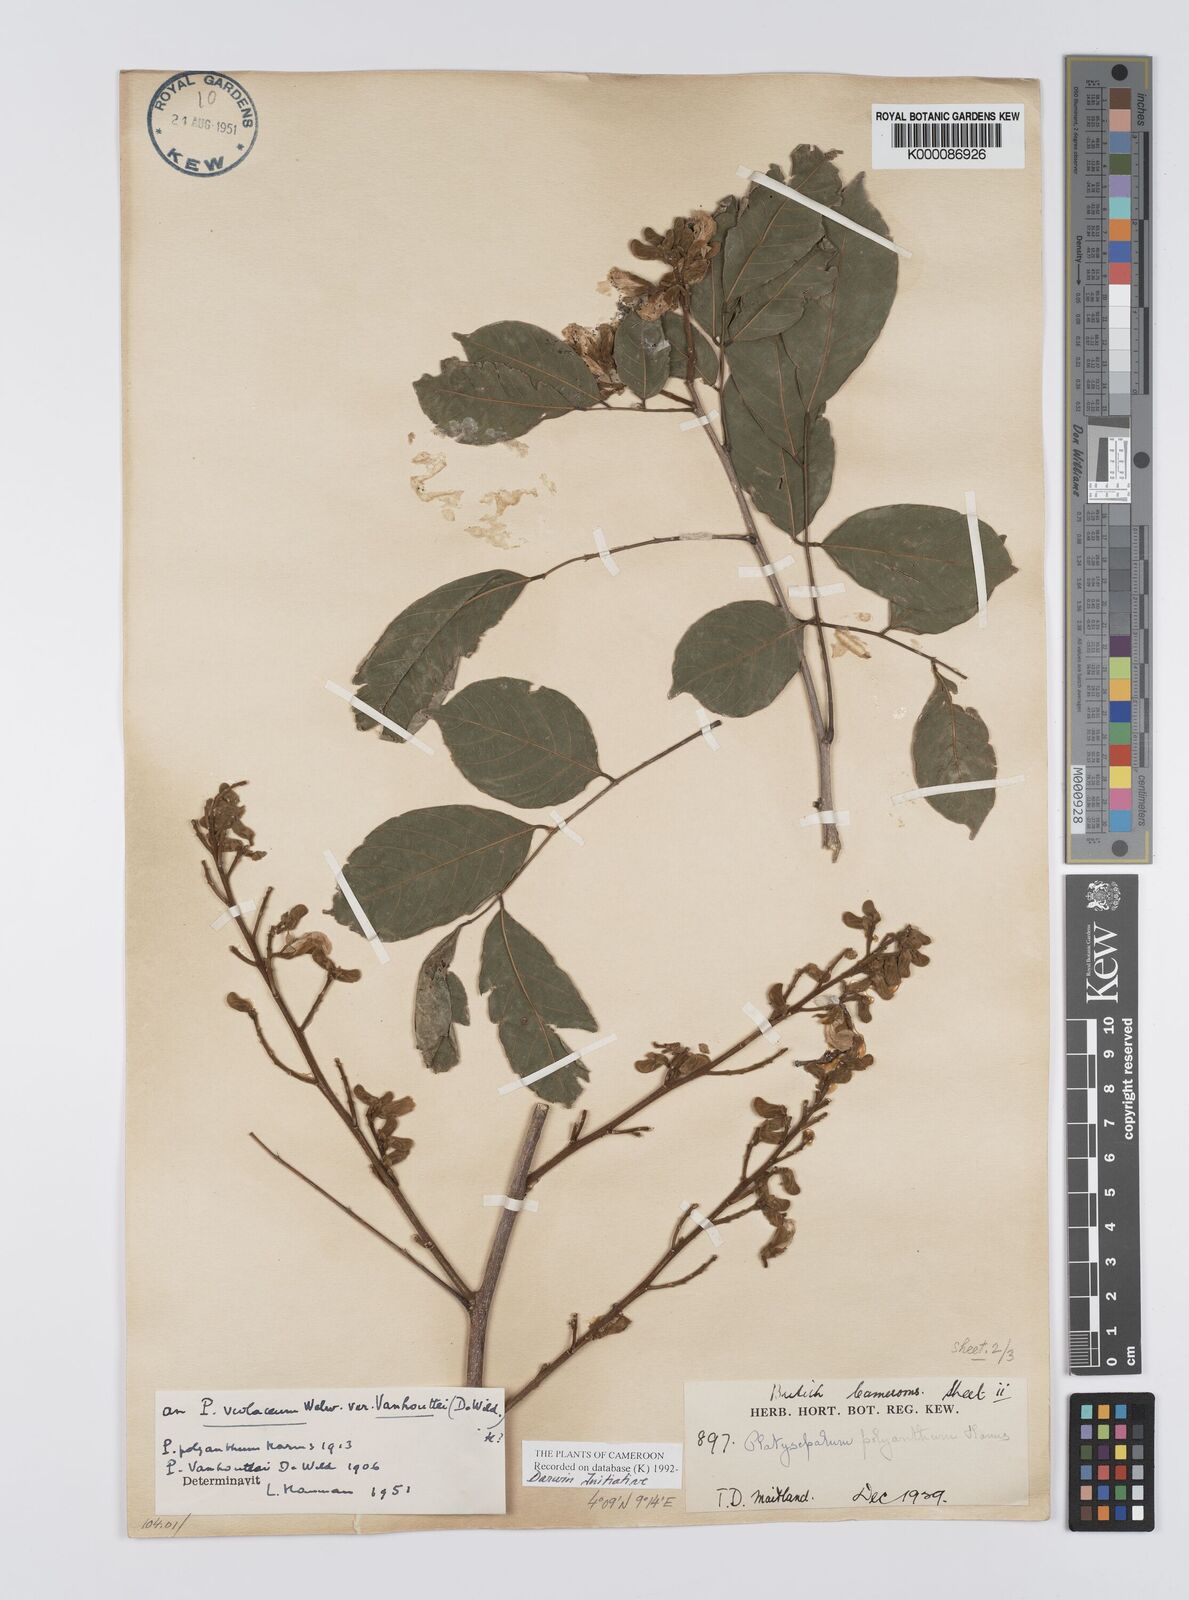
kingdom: Plantae
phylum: Tracheophyta
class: Magnoliopsida
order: Fabales
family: Fabaceae
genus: Platysepalum
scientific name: Platysepalum violaceum
